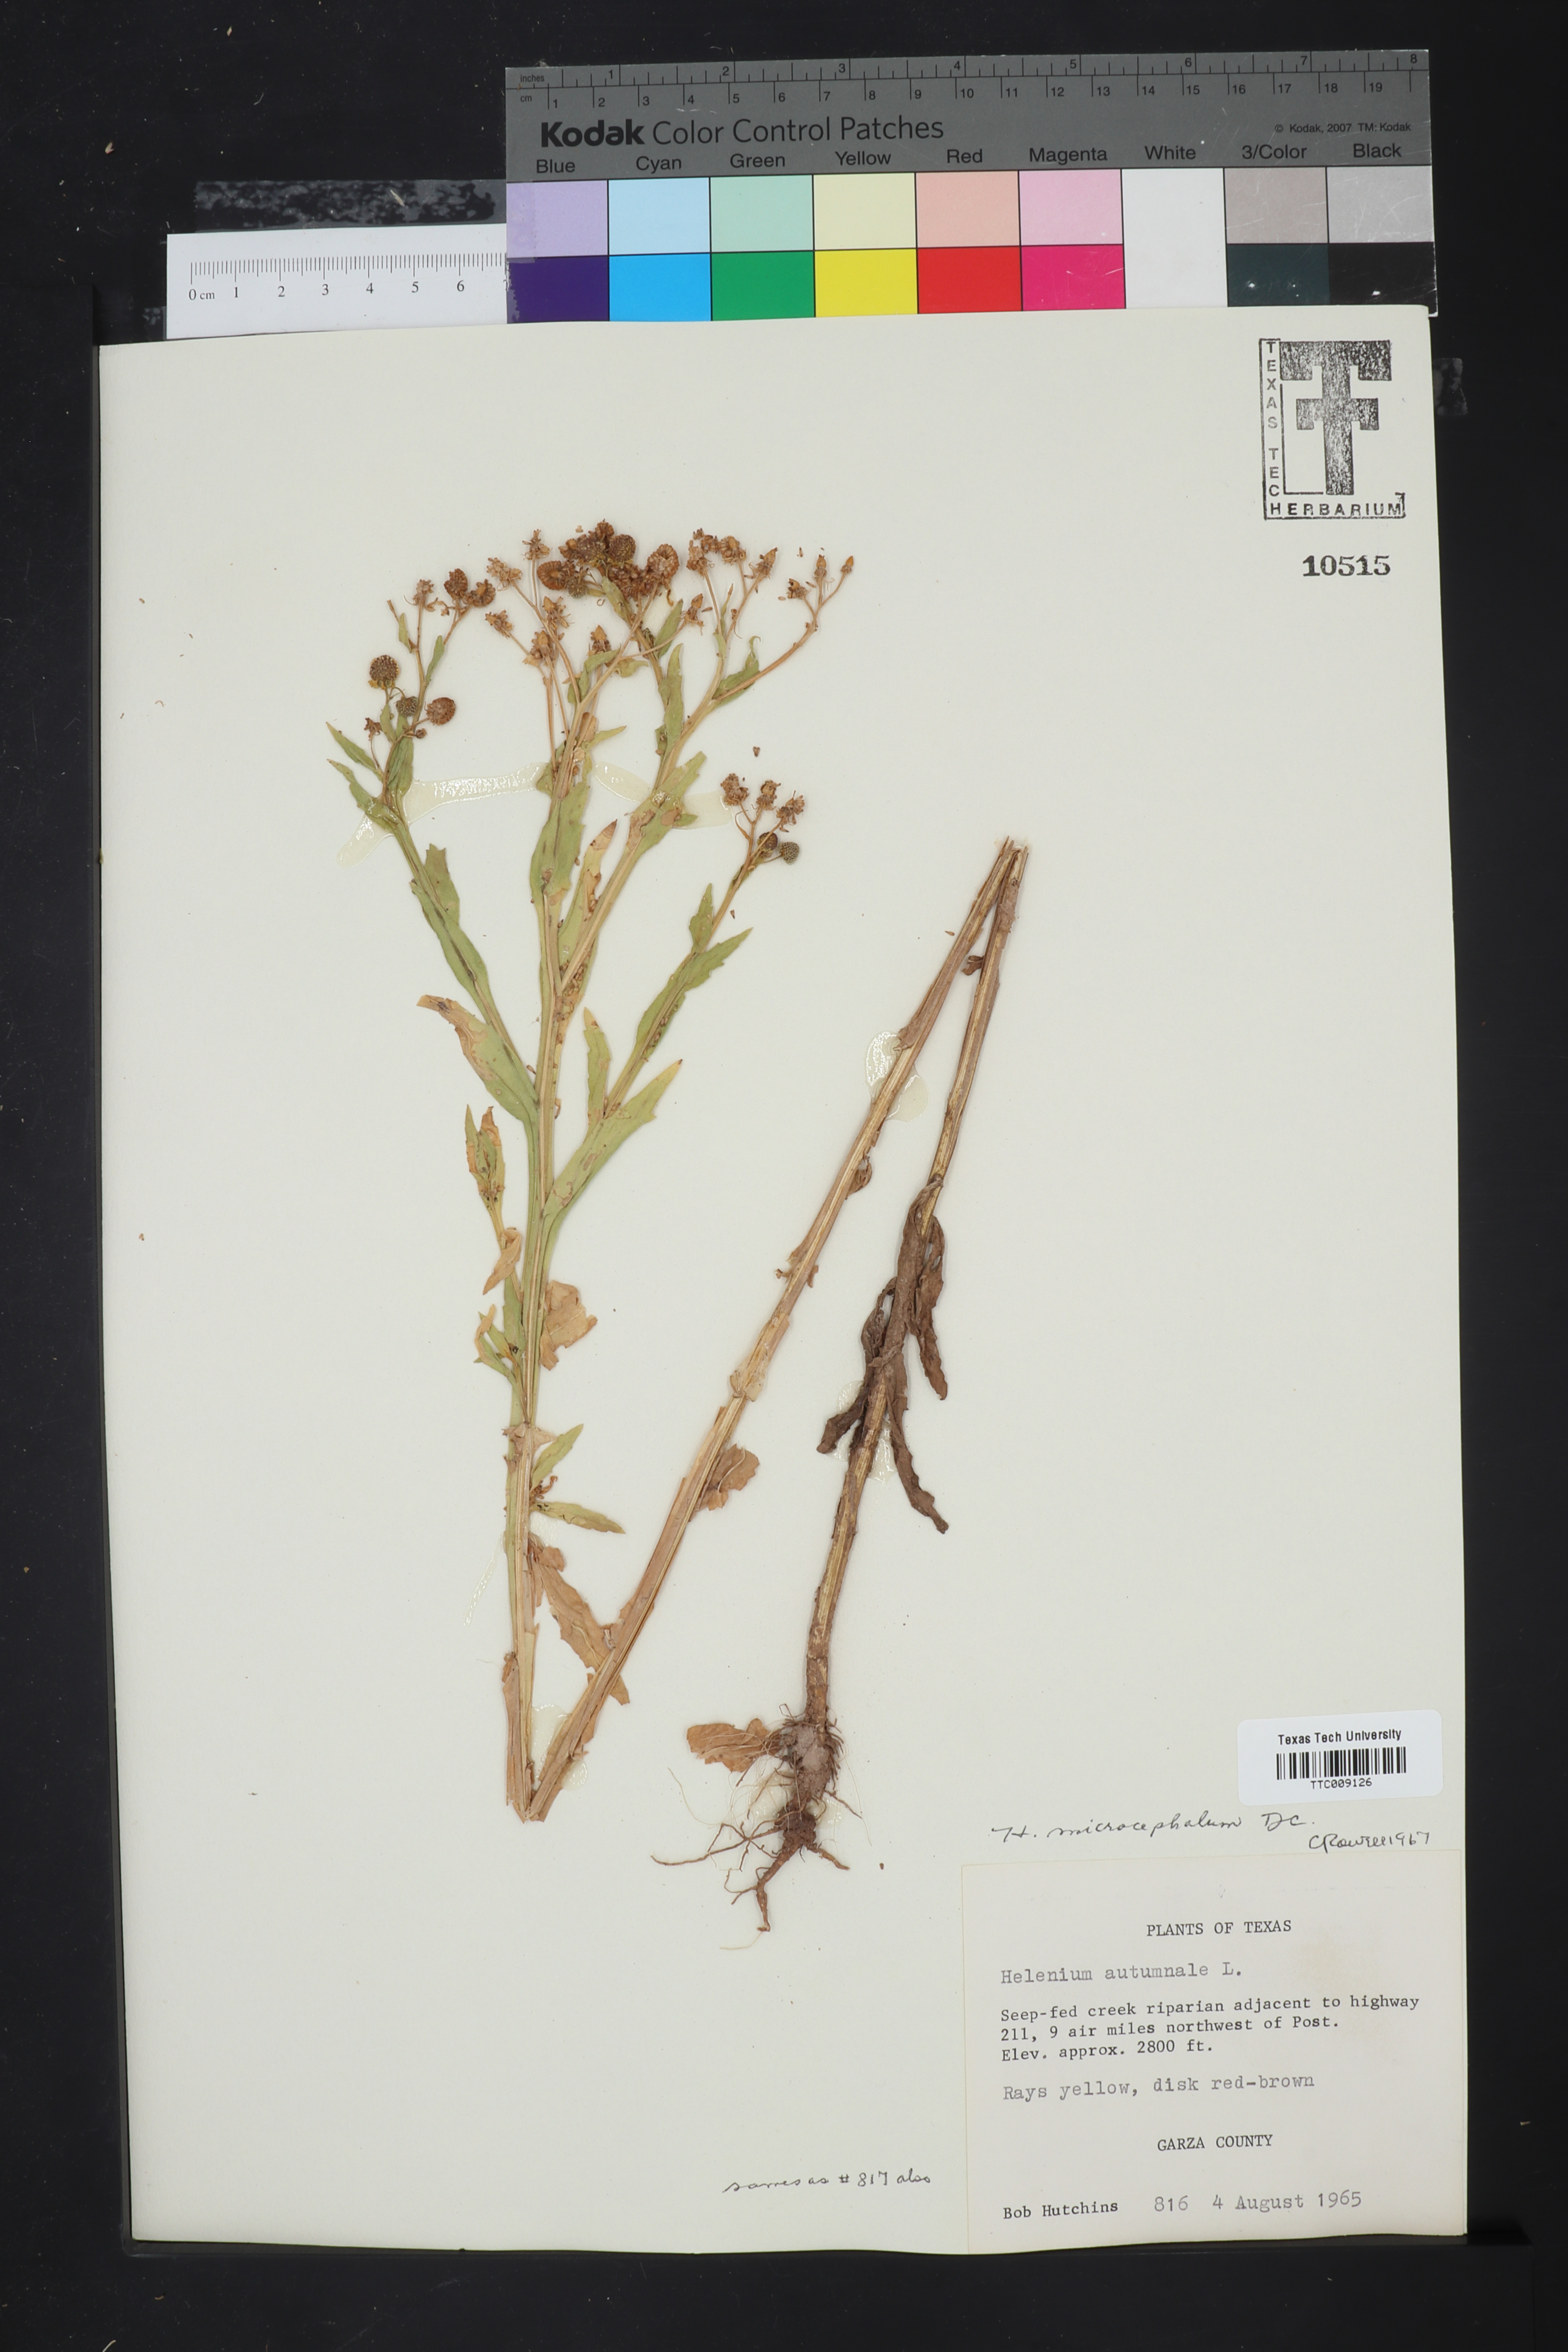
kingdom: Plantae
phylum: Tracheophyta
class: Magnoliopsida
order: Asterales
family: Asteraceae
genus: Helenium
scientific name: Helenium microcephalum
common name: Smallhead sneezeweed
